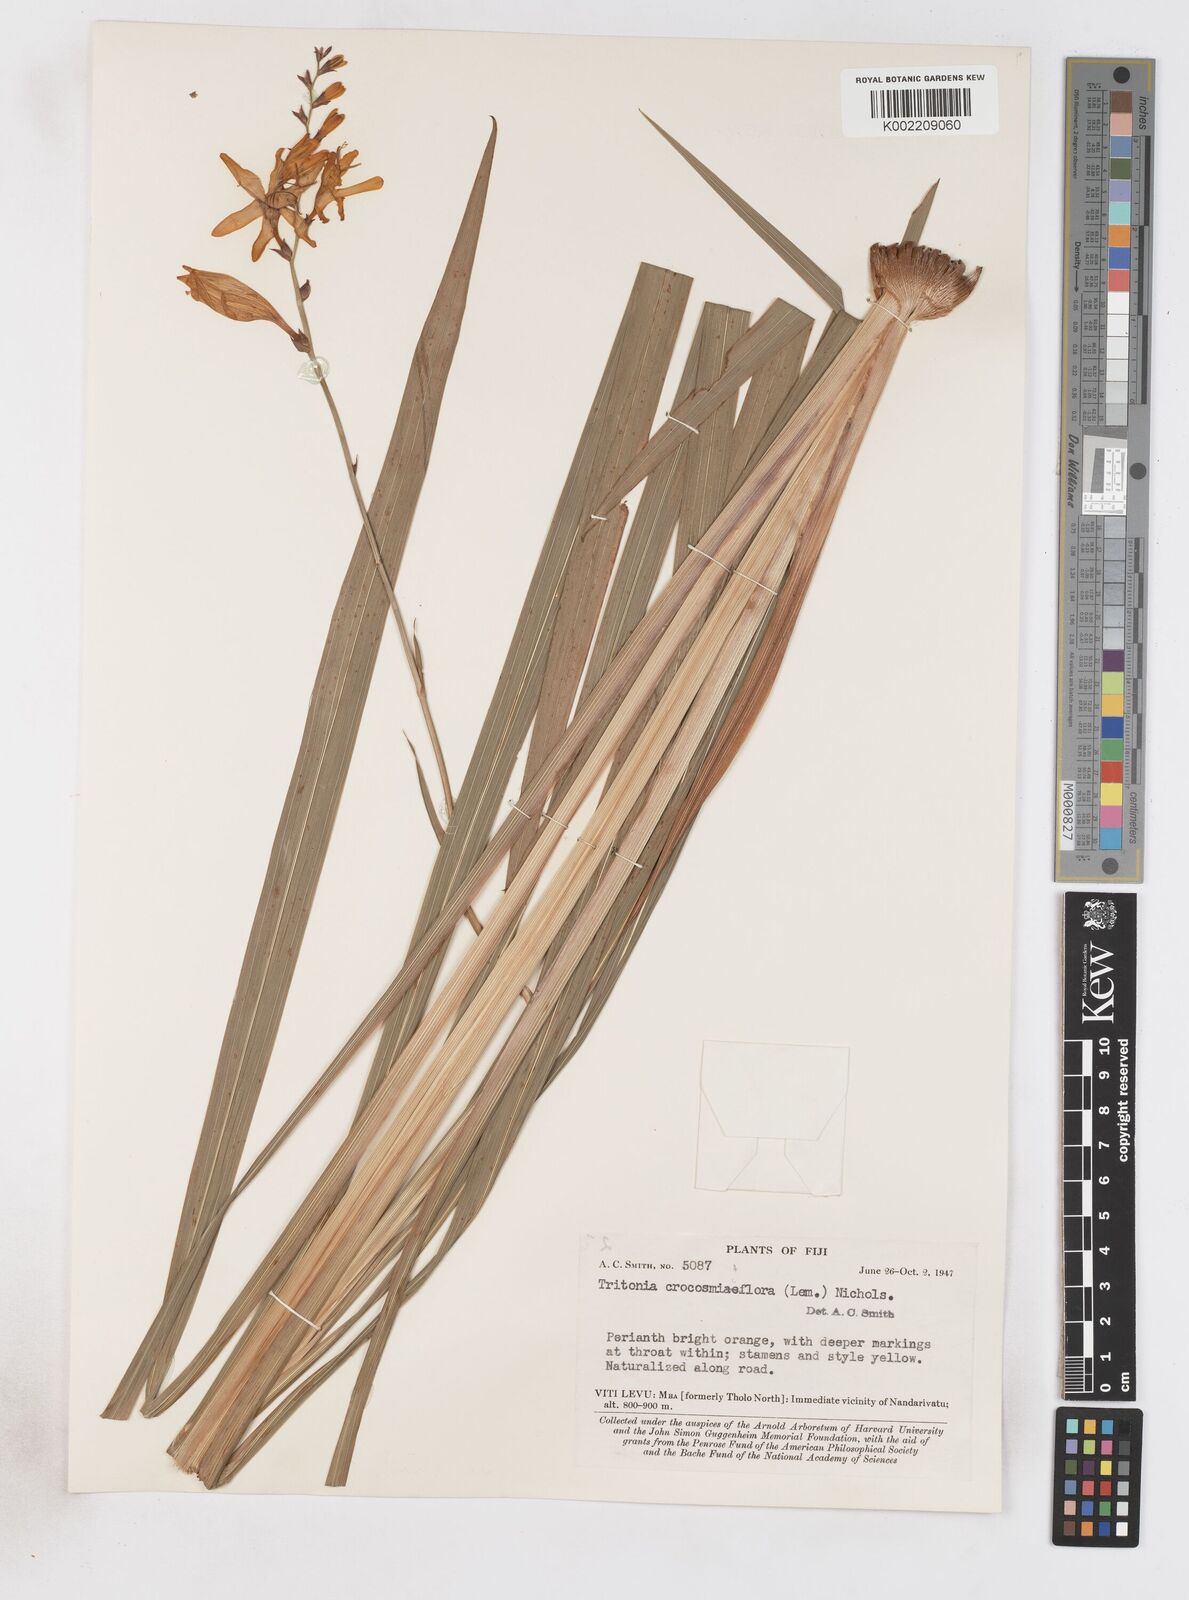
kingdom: Plantae
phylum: Tracheophyta
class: Liliopsida
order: Asparagales
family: Iridaceae
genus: Crocosmia
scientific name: Crocosmia crocosmiiflora
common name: Montbretia
